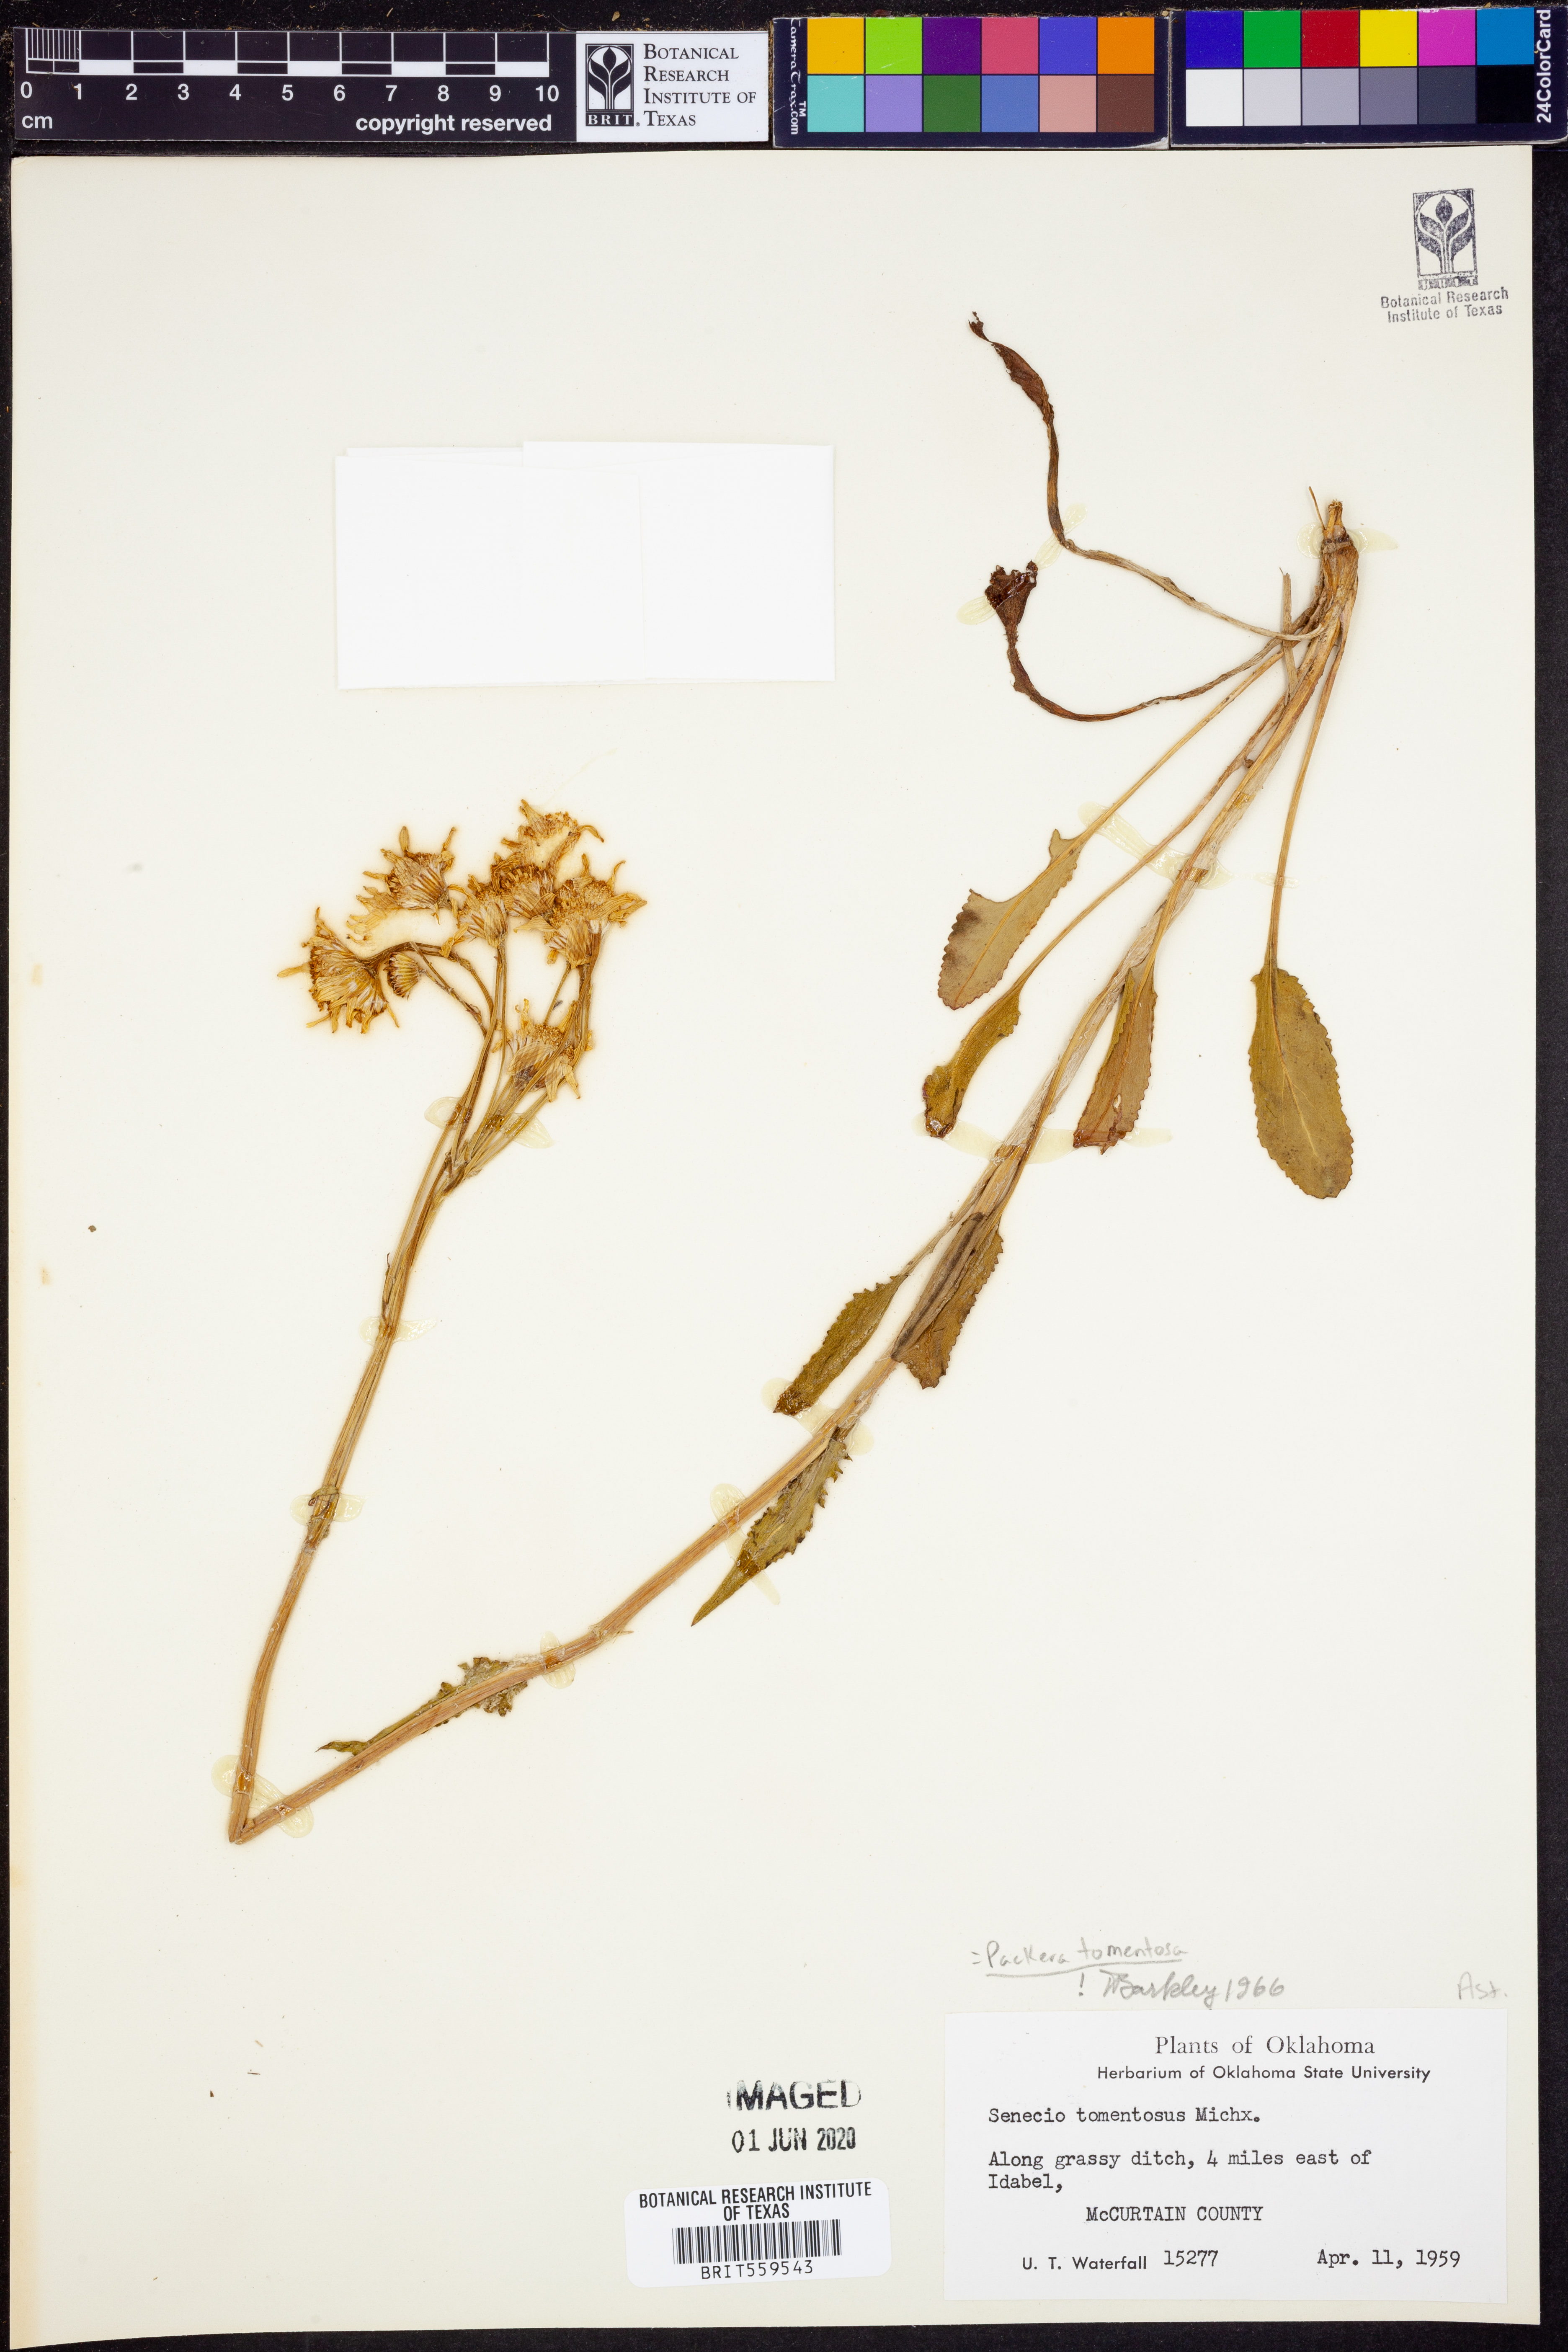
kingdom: Plantae
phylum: Tracheophyta
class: Magnoliopsida
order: Asterales
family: Asteraceae
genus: Packera
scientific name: Packera dubia
